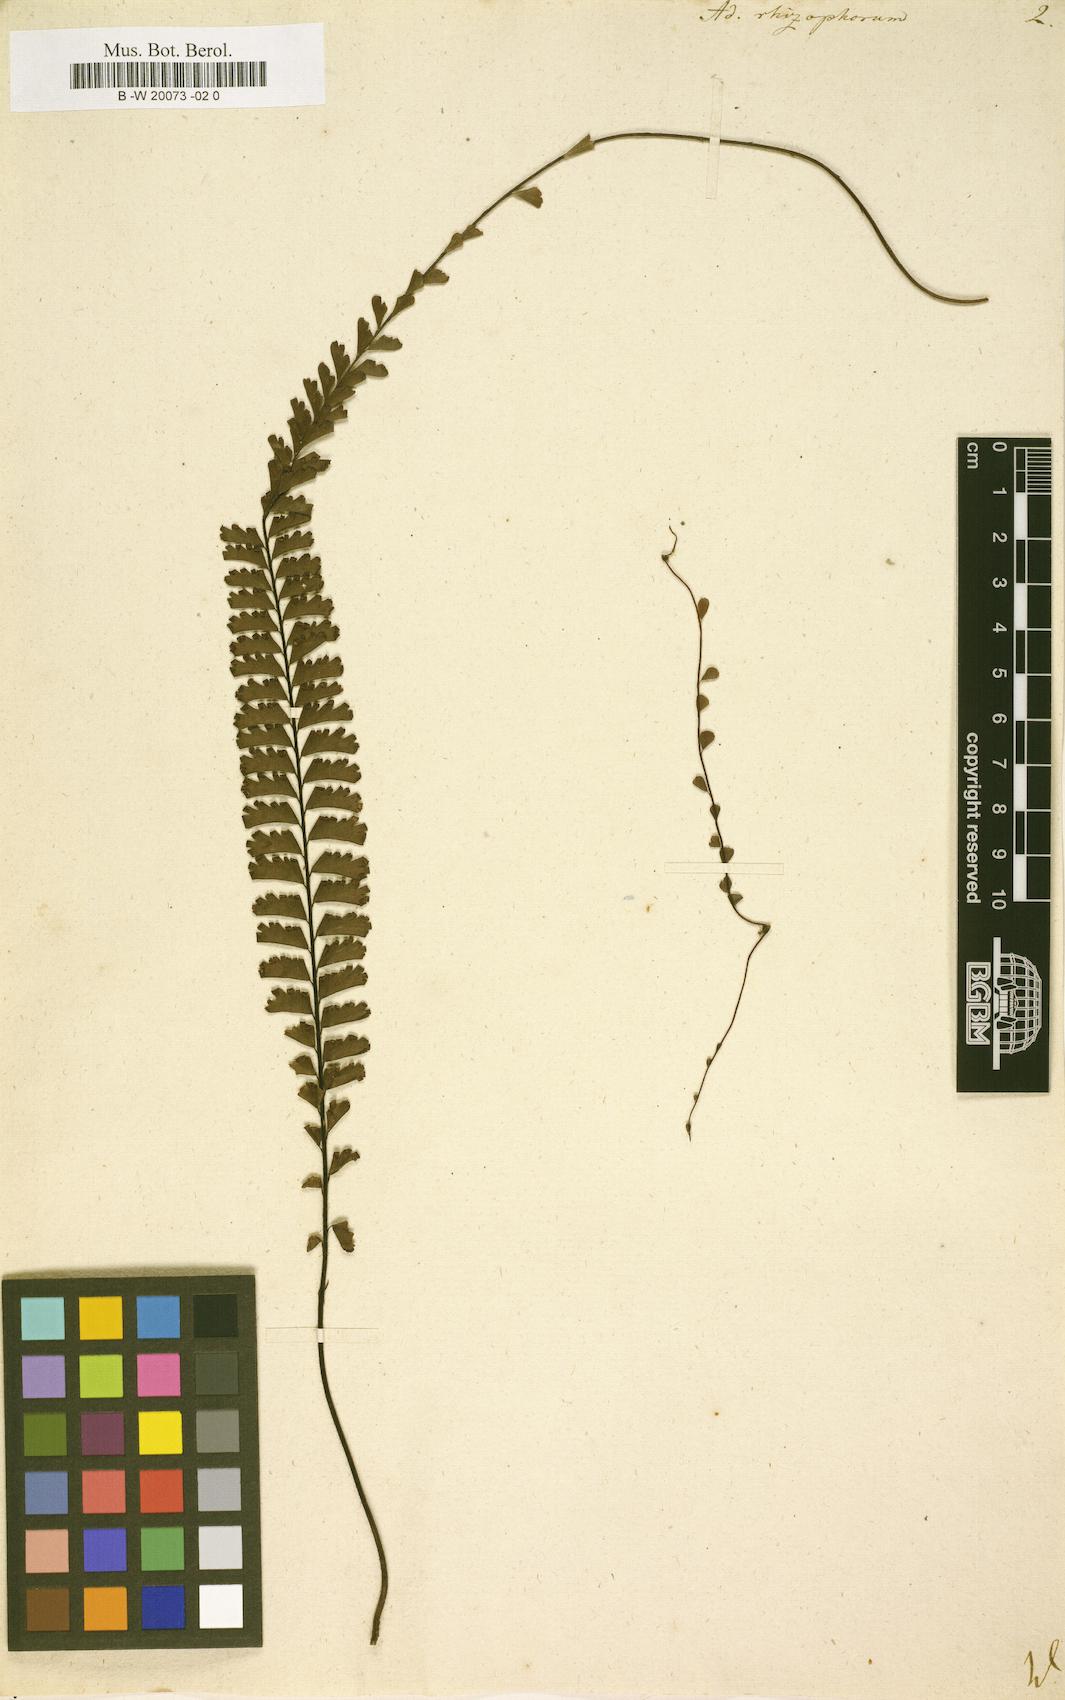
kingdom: Plantae
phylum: Tracheophyta
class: Polypodiopsida
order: Polypodiales
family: Pteridaceae
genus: Adiantum
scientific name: Adiantum rhizophytum
